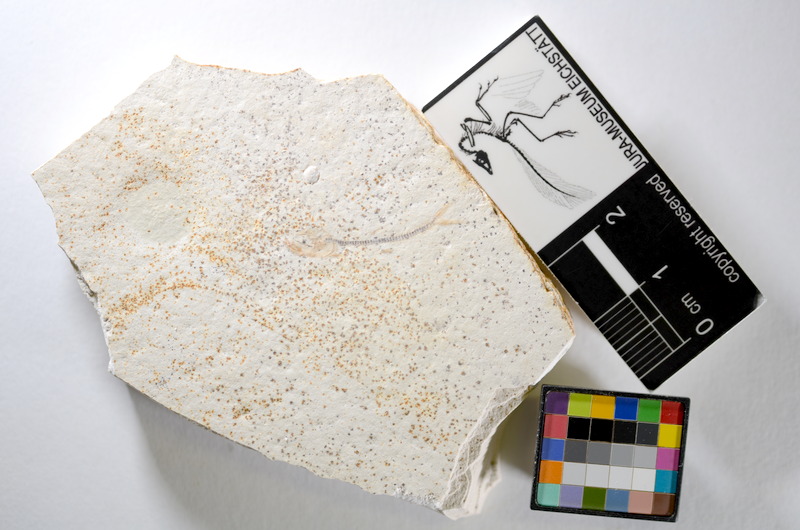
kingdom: Animalia
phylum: Chordata
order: Salmoniformes
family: Orthogonikleithridae
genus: Orthogonikleithrus
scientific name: Orthogonikleithrus hoelli
